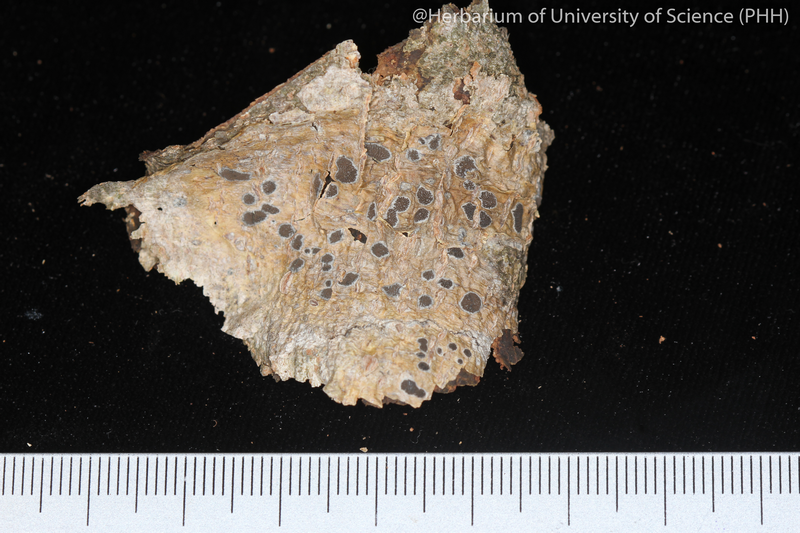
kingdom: Fungi
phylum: Ascomycota
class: Lecanoromycetes
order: Ostropales
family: Graphidaceae
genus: Glyphis
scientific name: Glyphis cicatricosa
